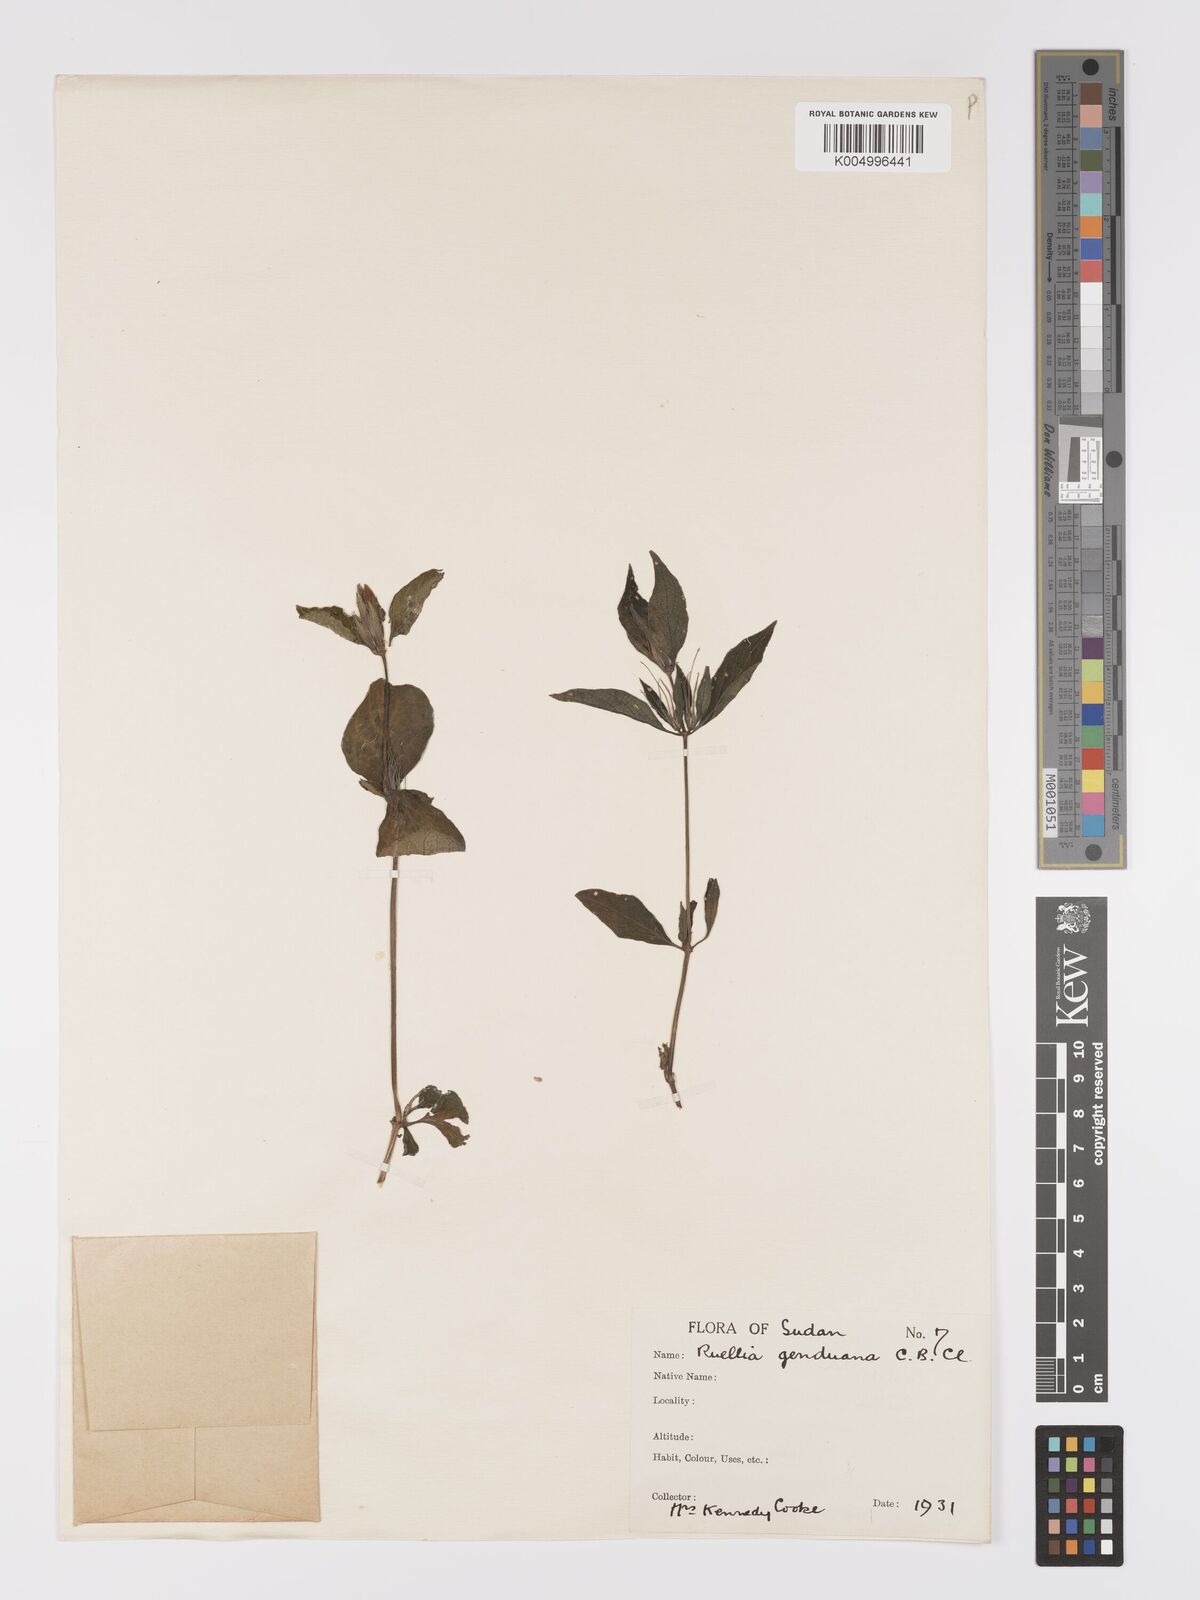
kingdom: Plantae
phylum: Tracheophyta
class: Magnoliopsida
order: Lamiales
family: Acanthaceae
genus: Ruellia
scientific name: Ruellia
